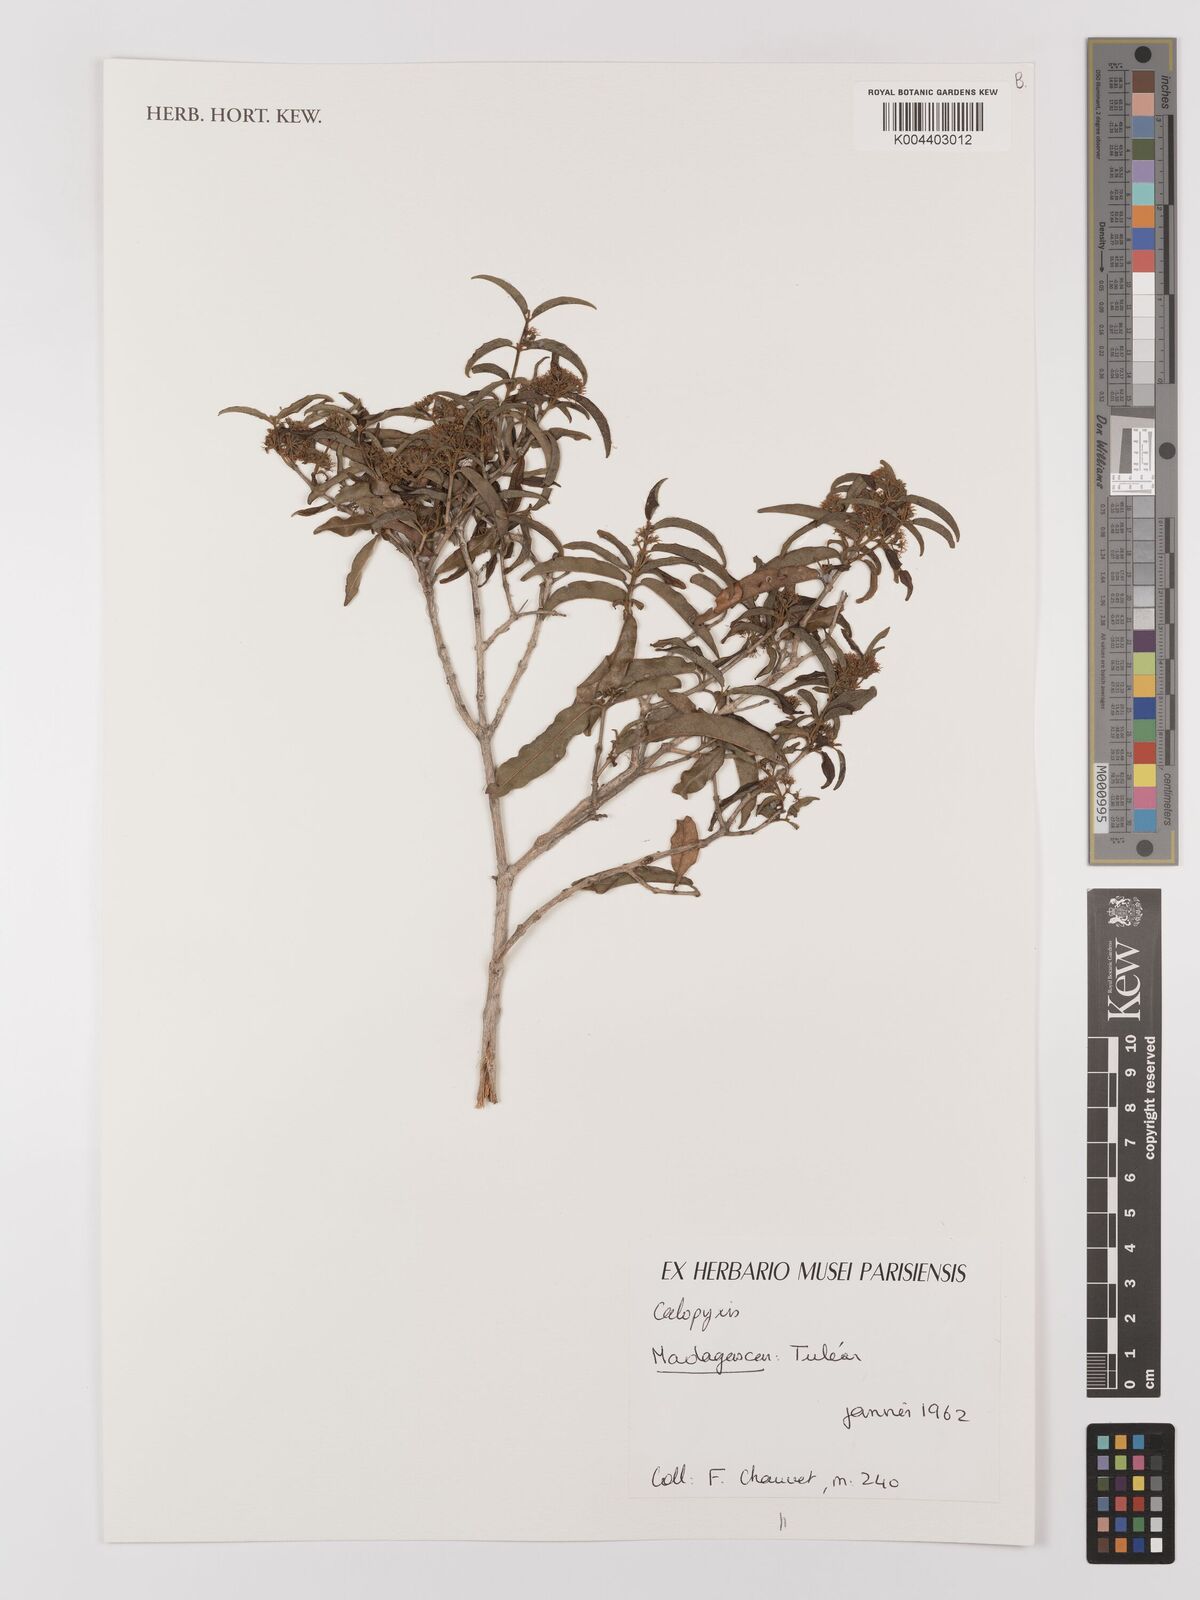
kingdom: Plantae
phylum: Tracheophyta
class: Magnoliopsida
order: Myrtales
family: Combretaceae
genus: Combretum
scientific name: Combretum
